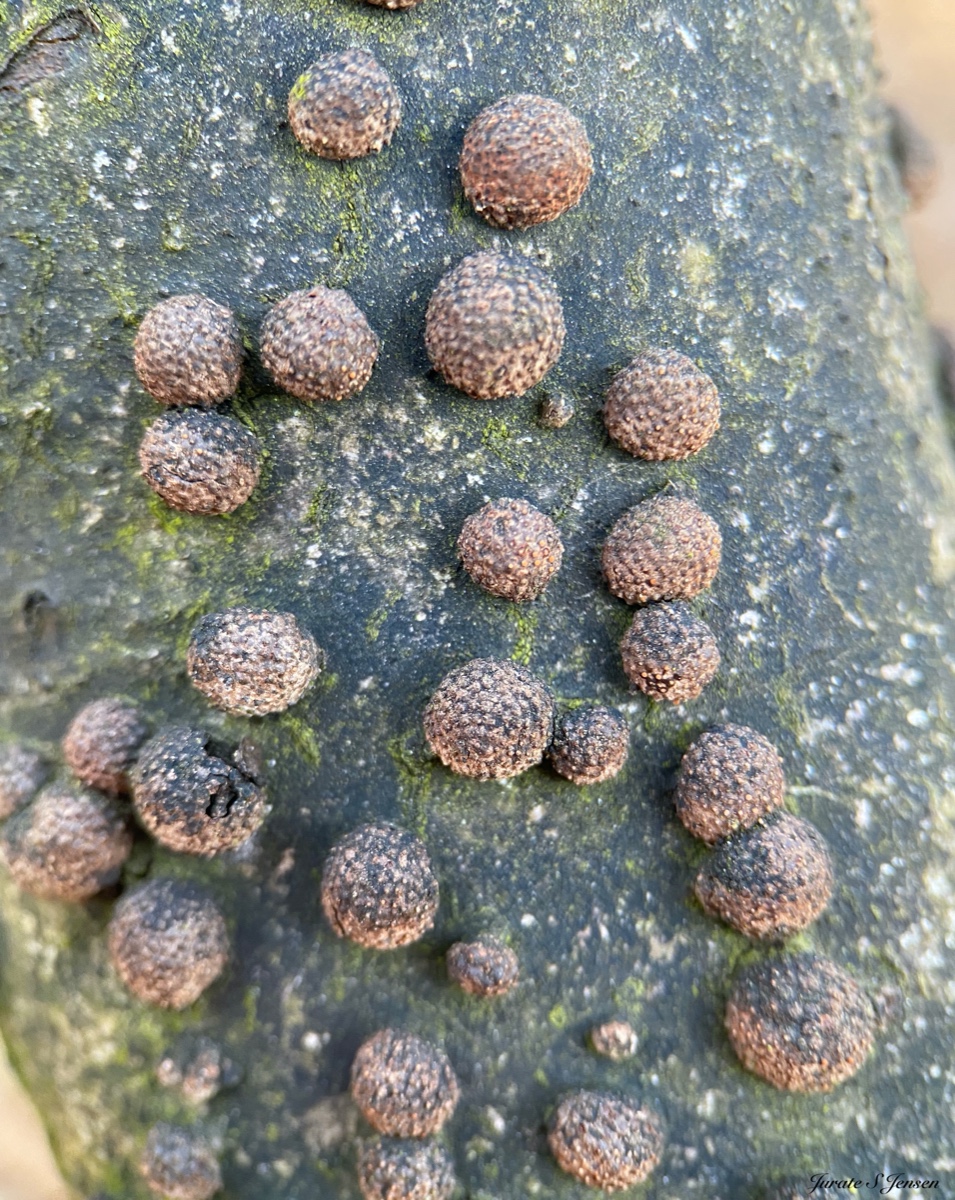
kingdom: Fungi
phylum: Ascomycota
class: Sordariomycetes
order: Xylariales
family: Hypoxylaceae
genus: Hypoxylon
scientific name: Hypoxylon fragiforme
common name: kuljordbær
